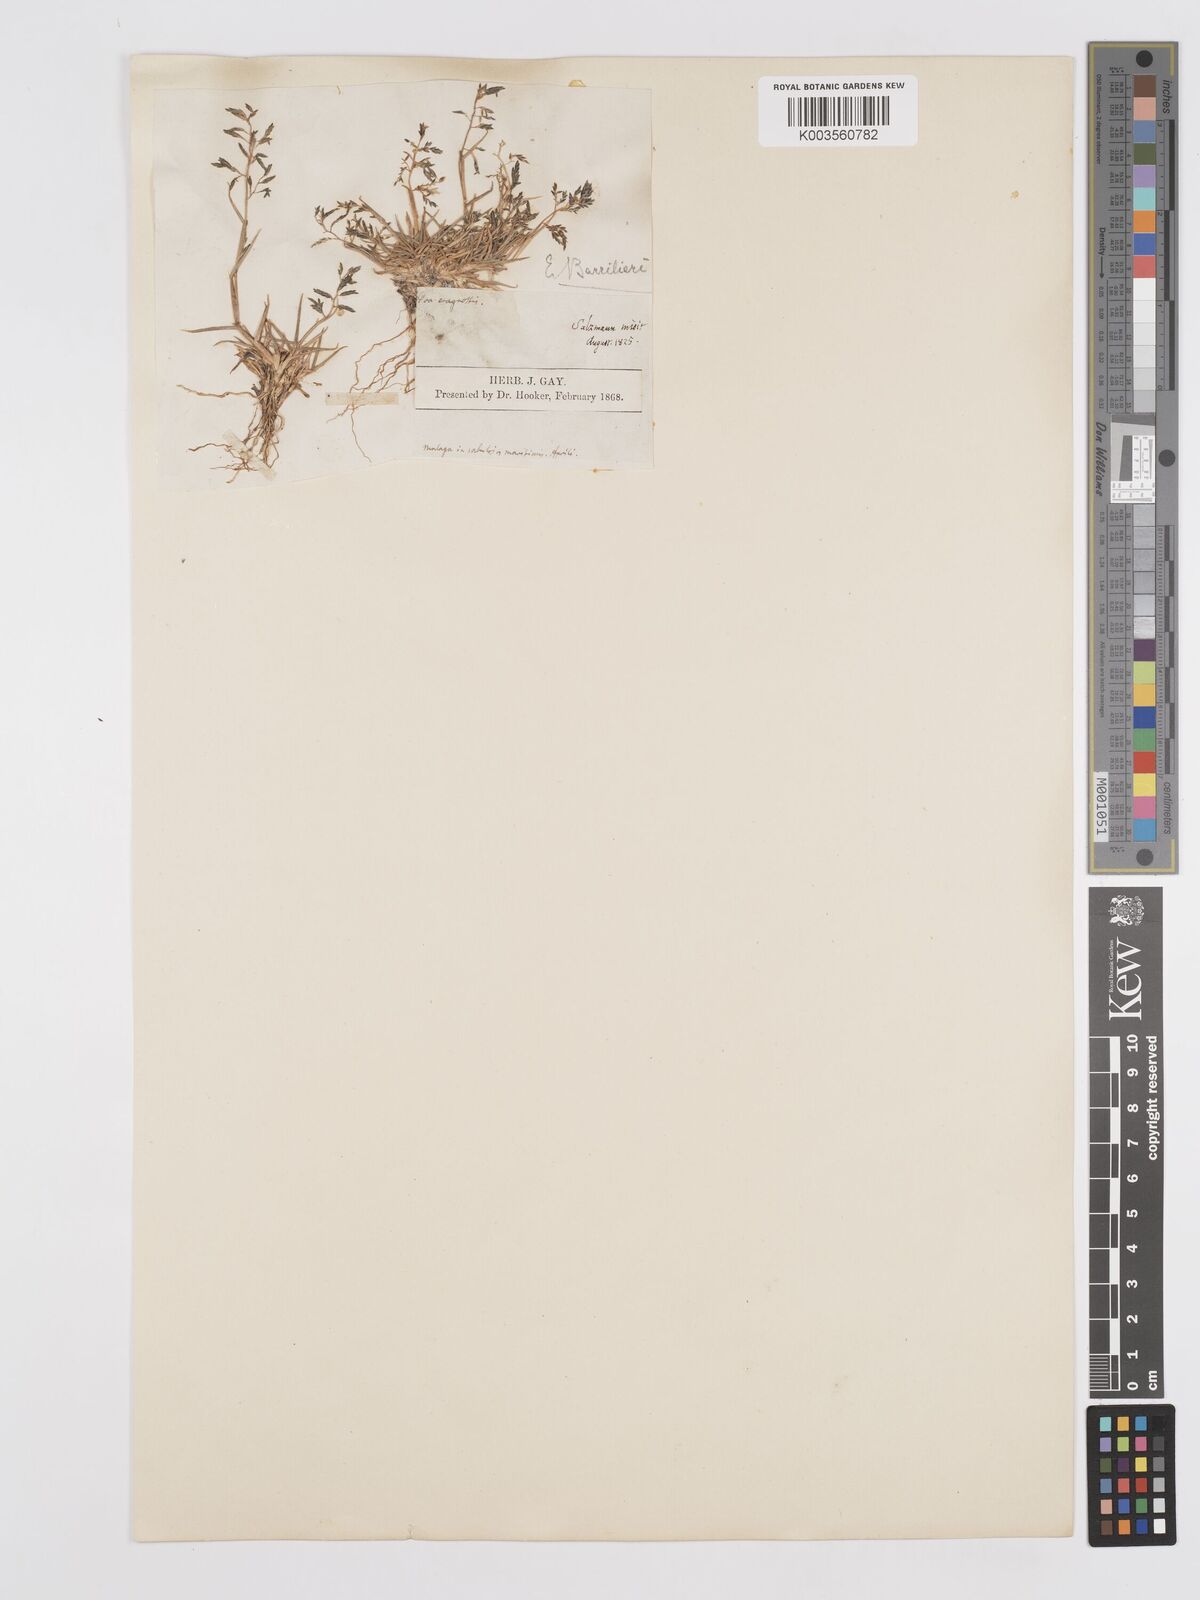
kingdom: Plantae
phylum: Tracheophyta
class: Liliopsida
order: Poales
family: Poaceae
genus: Eragrostis
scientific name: Eragrostis barrelieri
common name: Mediterranean lovegrass
